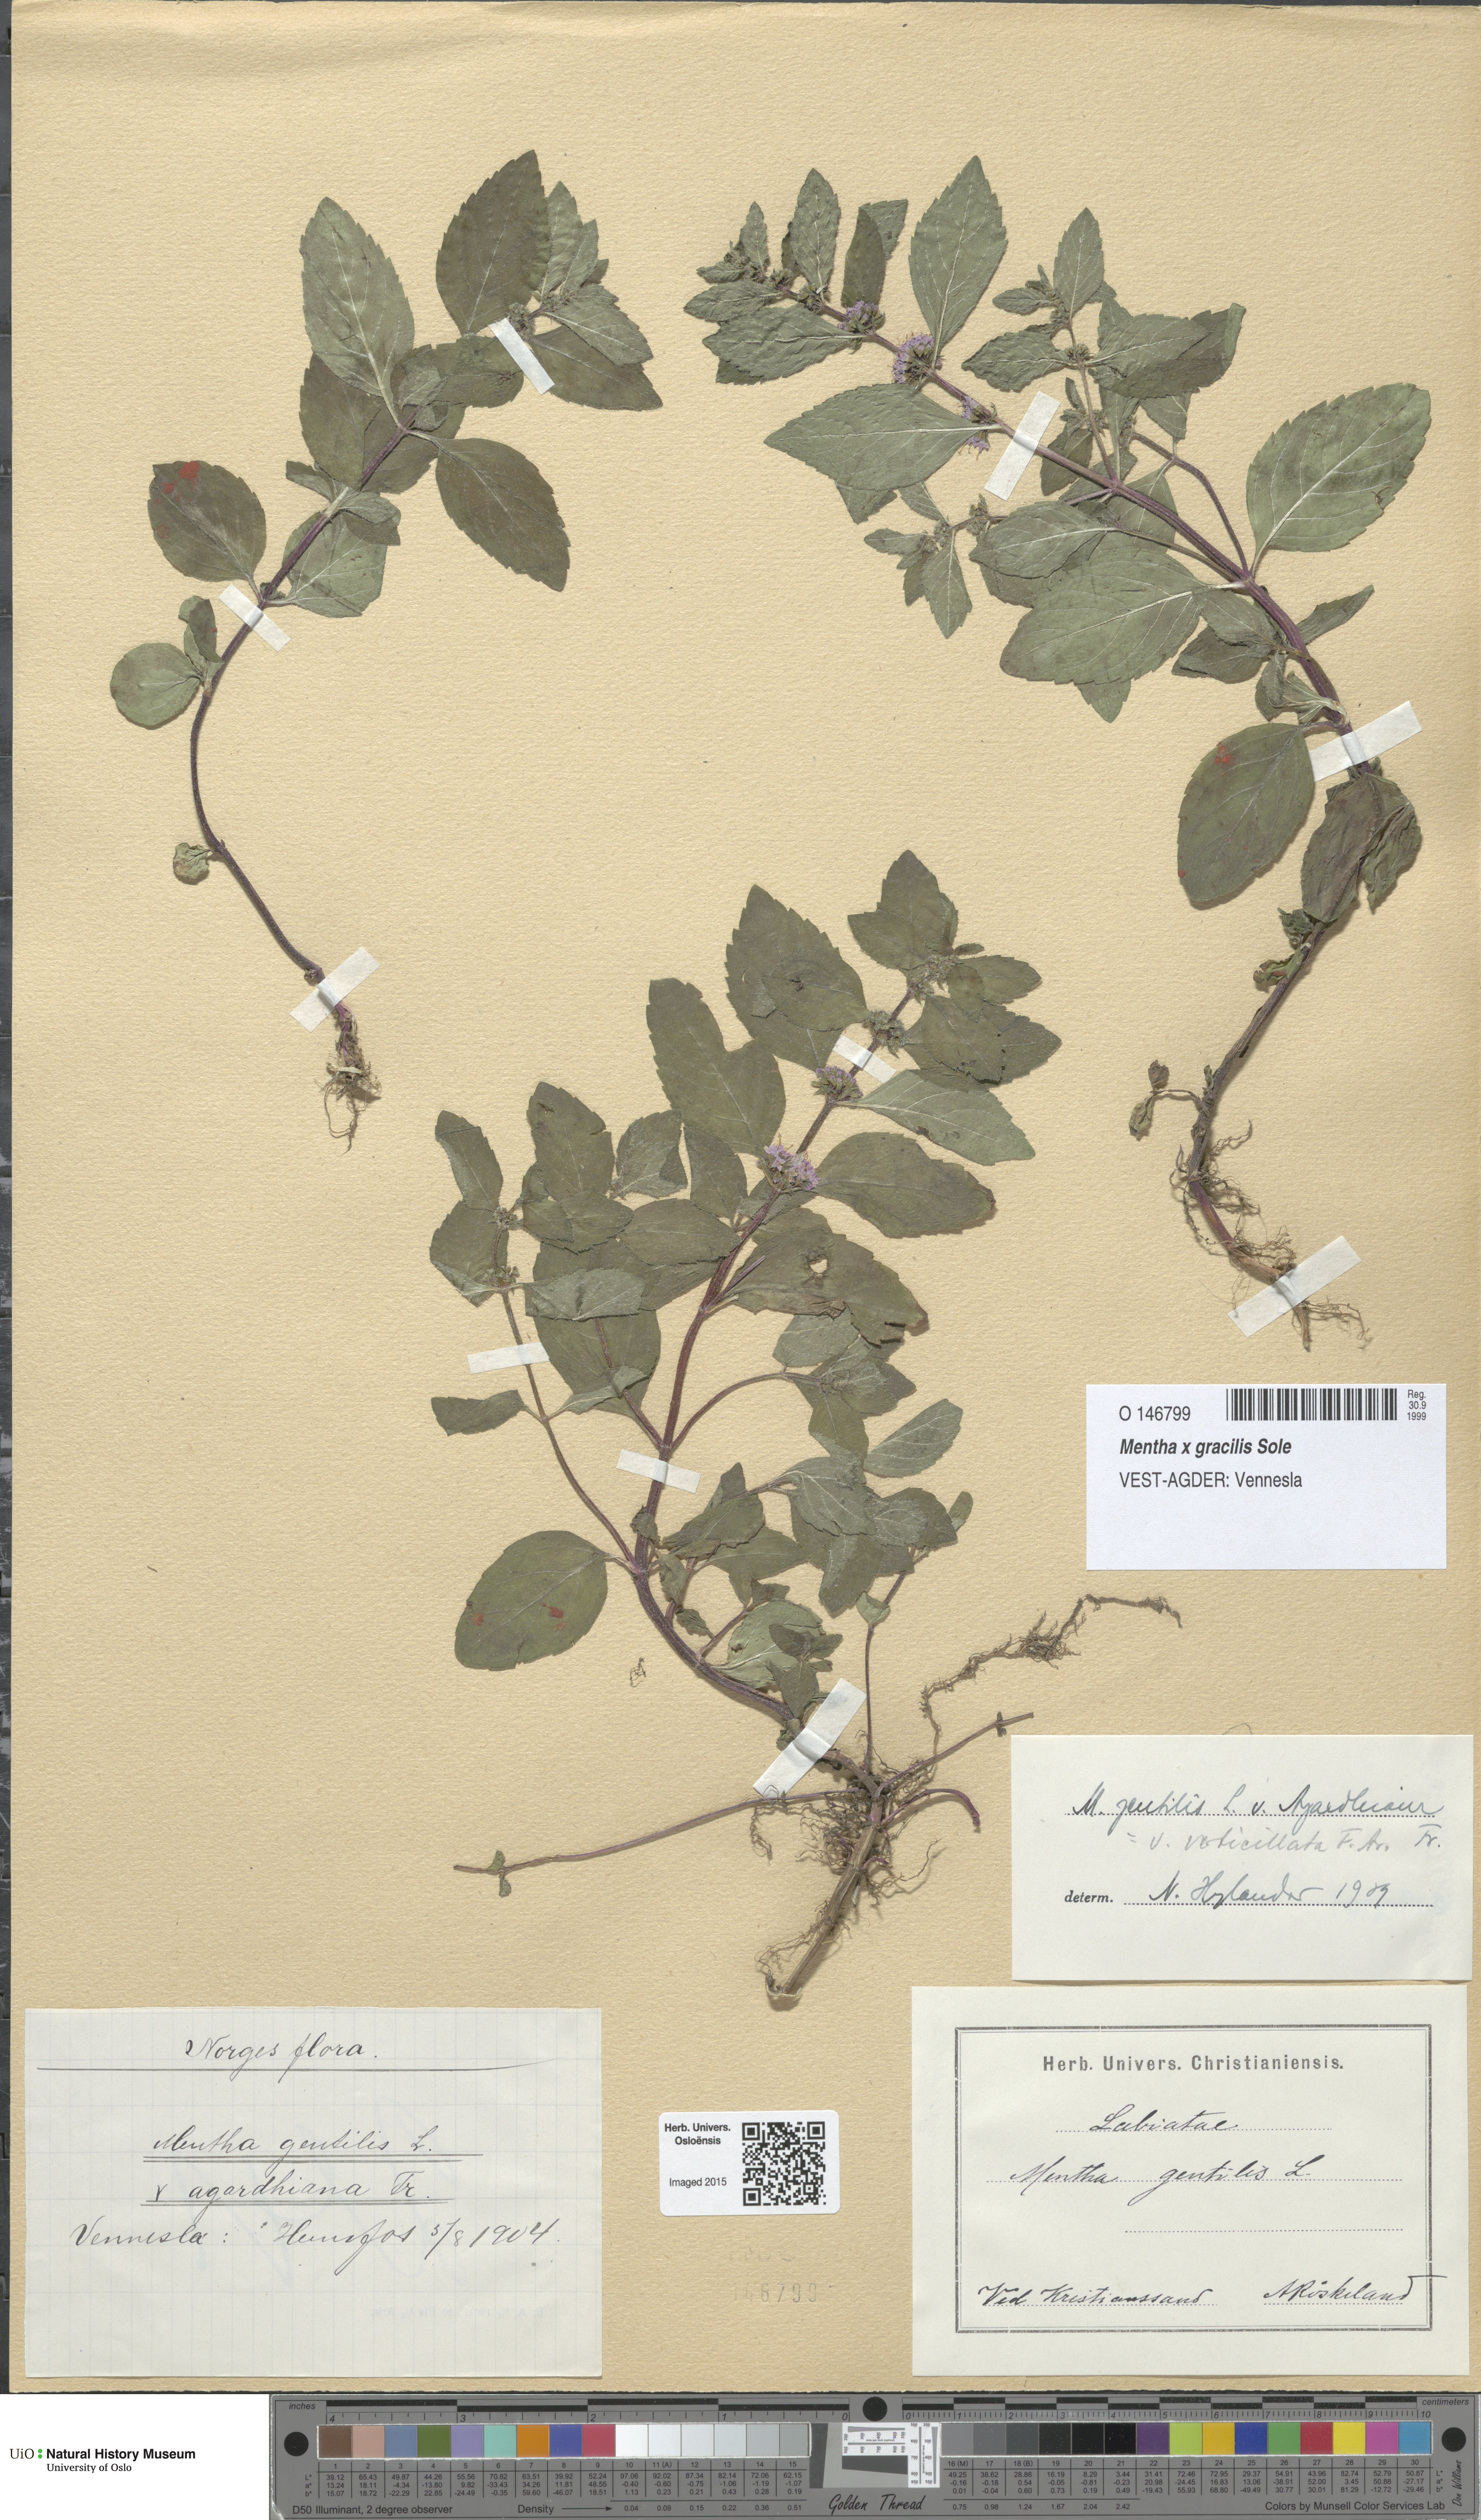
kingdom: Plantae
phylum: Tracheophyta
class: Magnoliopsida
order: Lamiales
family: Lamiaceae
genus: Mentha
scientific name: Mentha arvensis
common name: Corn mint
